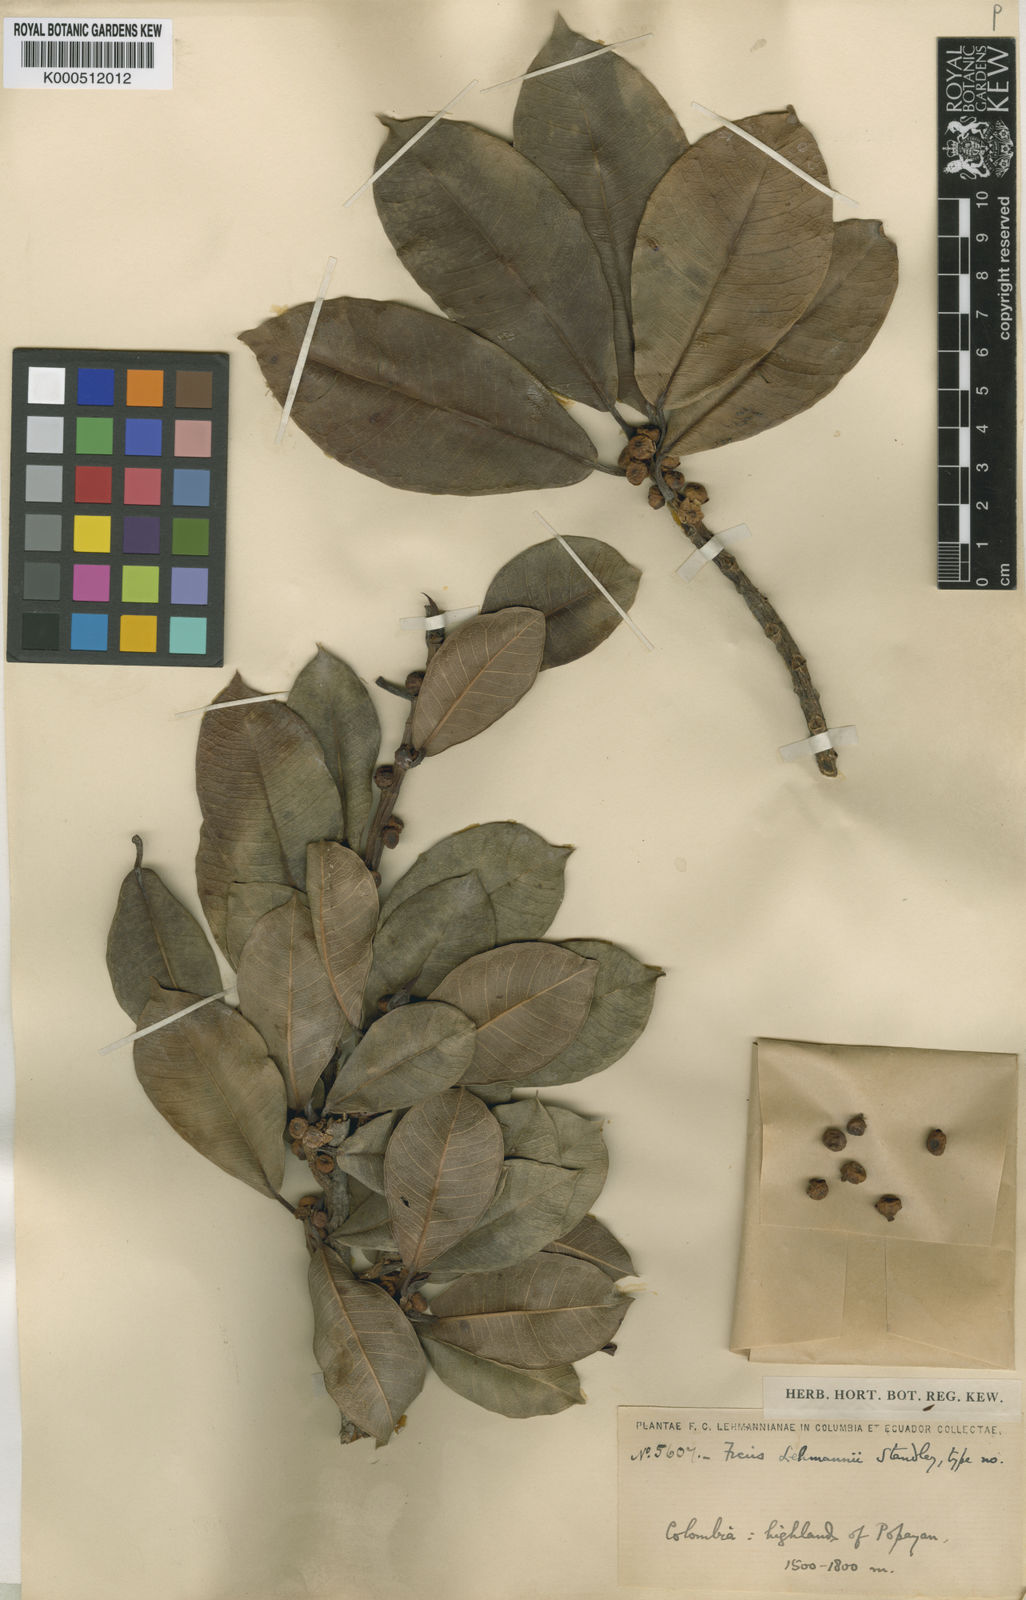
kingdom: Plantae
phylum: Tracheophyta
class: Magnoliopsida
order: Rosales
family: Moraceae
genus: Ficus
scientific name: Ficus lehmannii
